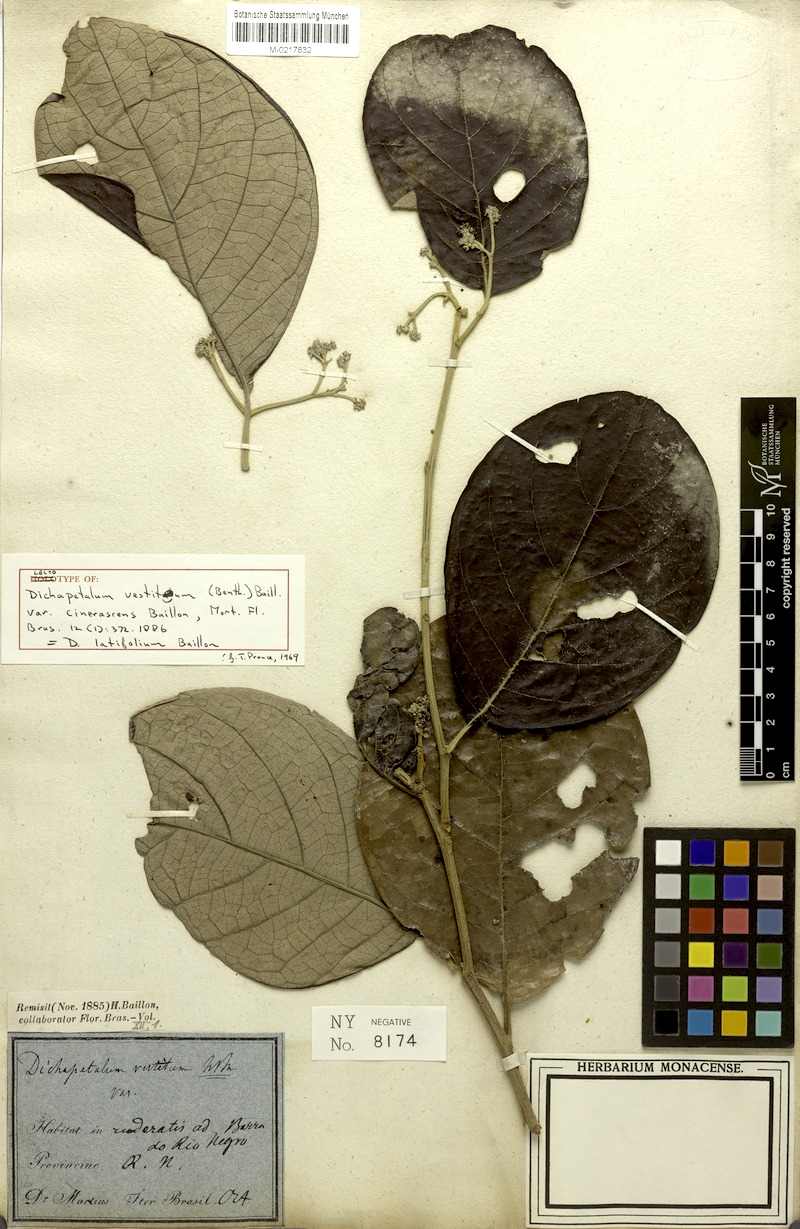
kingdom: Plantae
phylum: Tracheophyta
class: Magnoliopsida
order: Malpighiales
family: Dichapetalaceae
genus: Dichapetalum
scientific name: Dichapetalum latifolium
